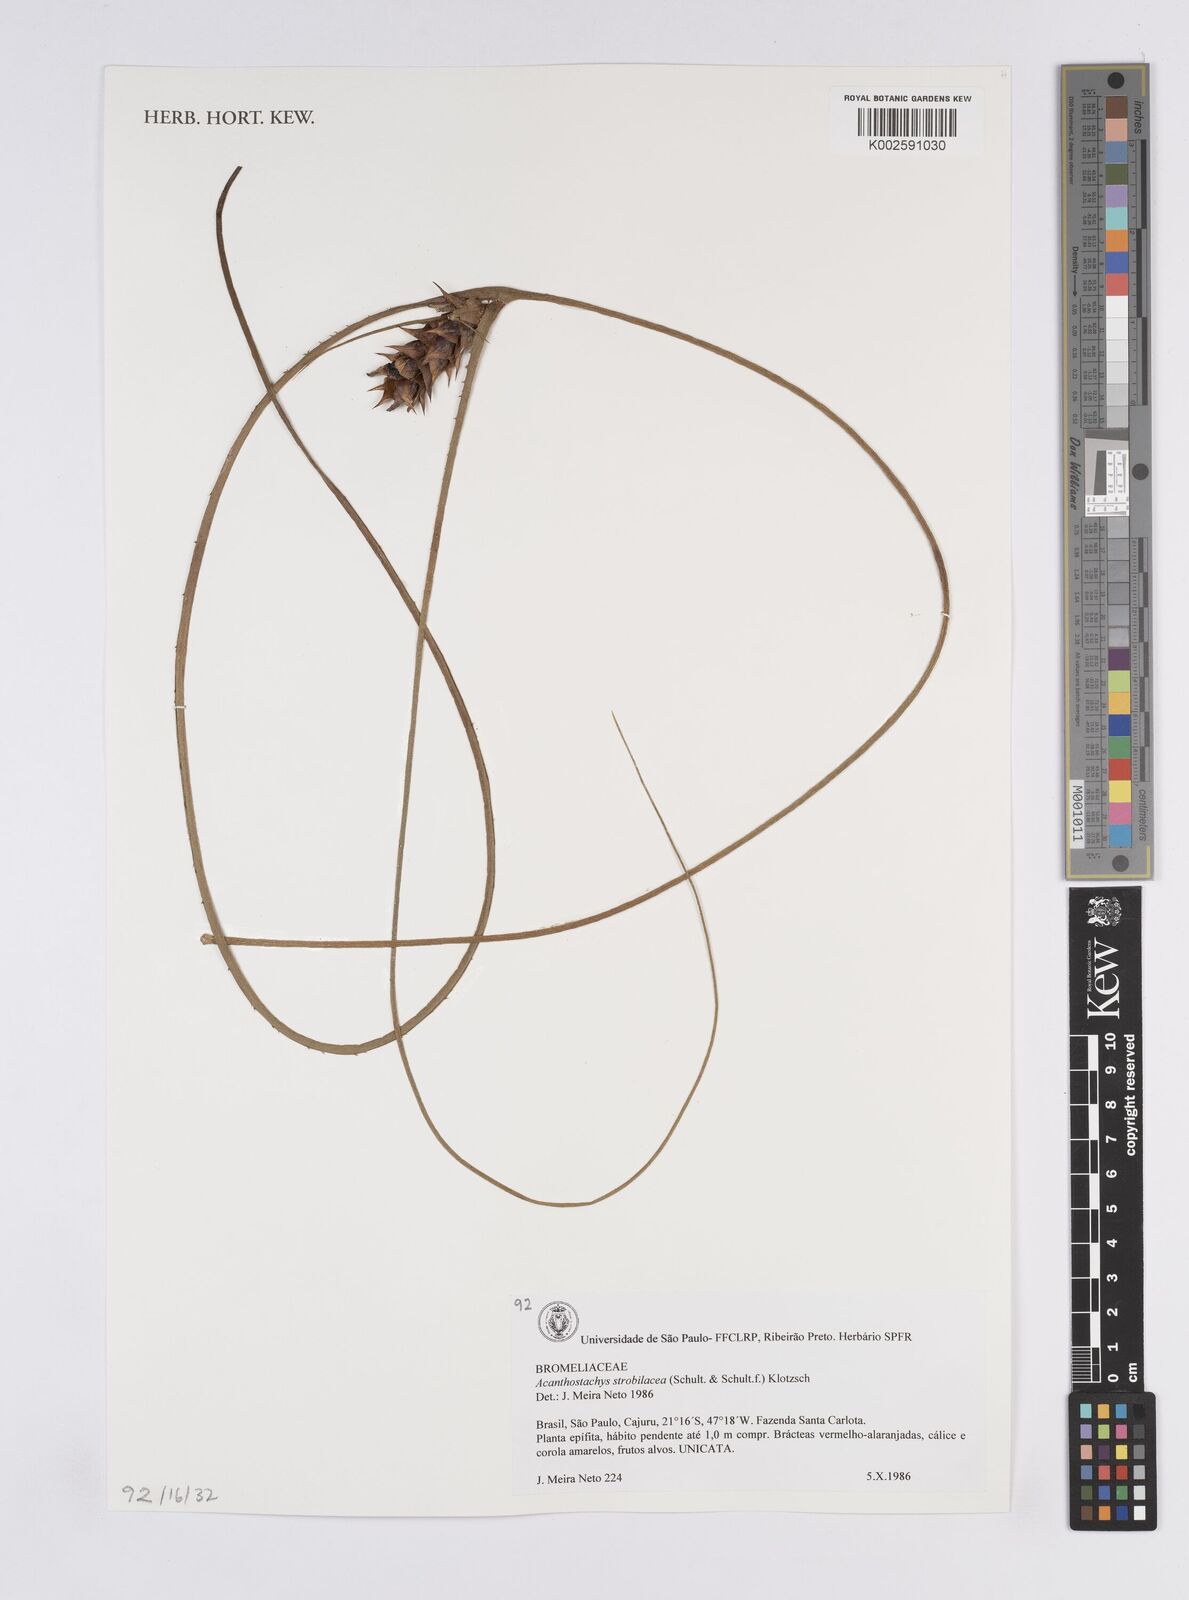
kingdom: Plantae
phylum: Tracheophyta
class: Liliopsida
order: Poales
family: Bromeliaceae
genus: Acanthostachys
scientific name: Acanthostachys strobilacea
